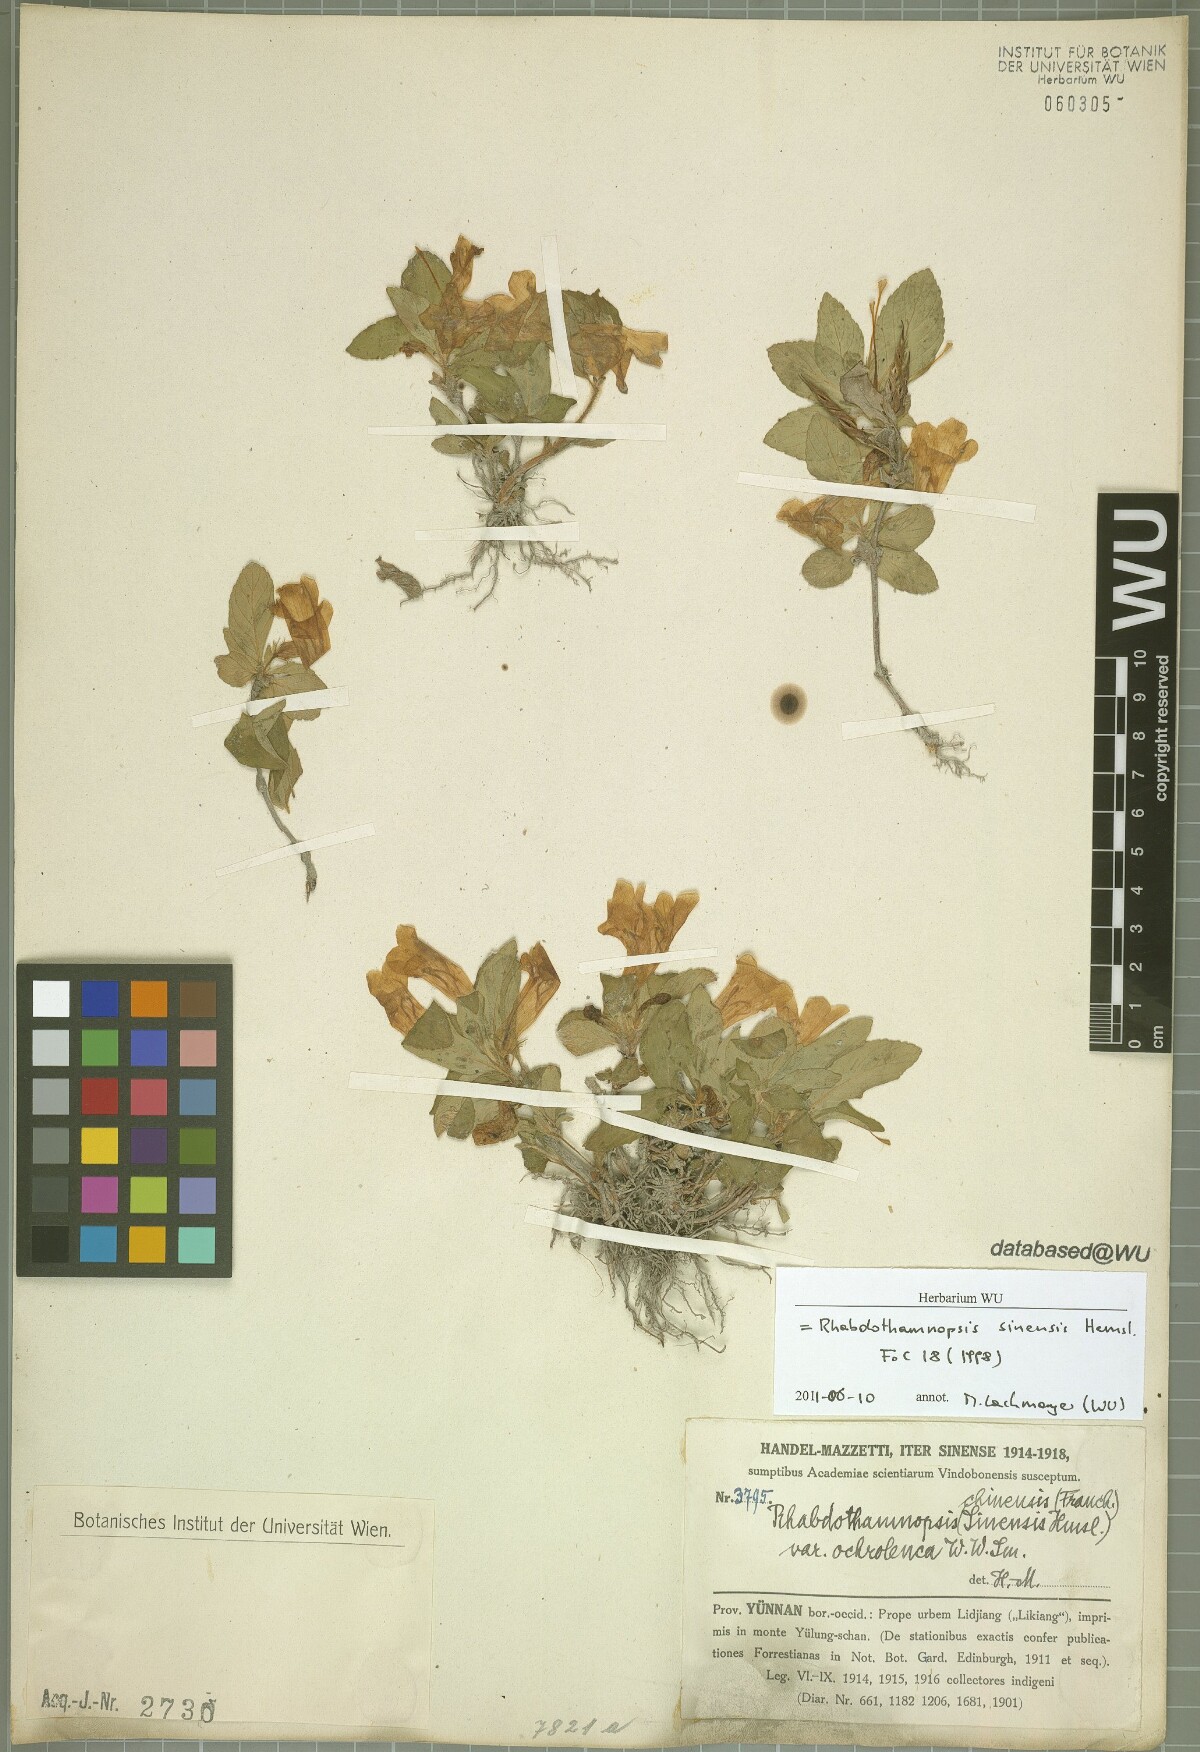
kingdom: Plantae
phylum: Tracheophyta
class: Magnoliopsida
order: Lamiales
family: Gesneriaceae
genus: Rhabdothamnopsis
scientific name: Rhabdothamnopsis sinensis
